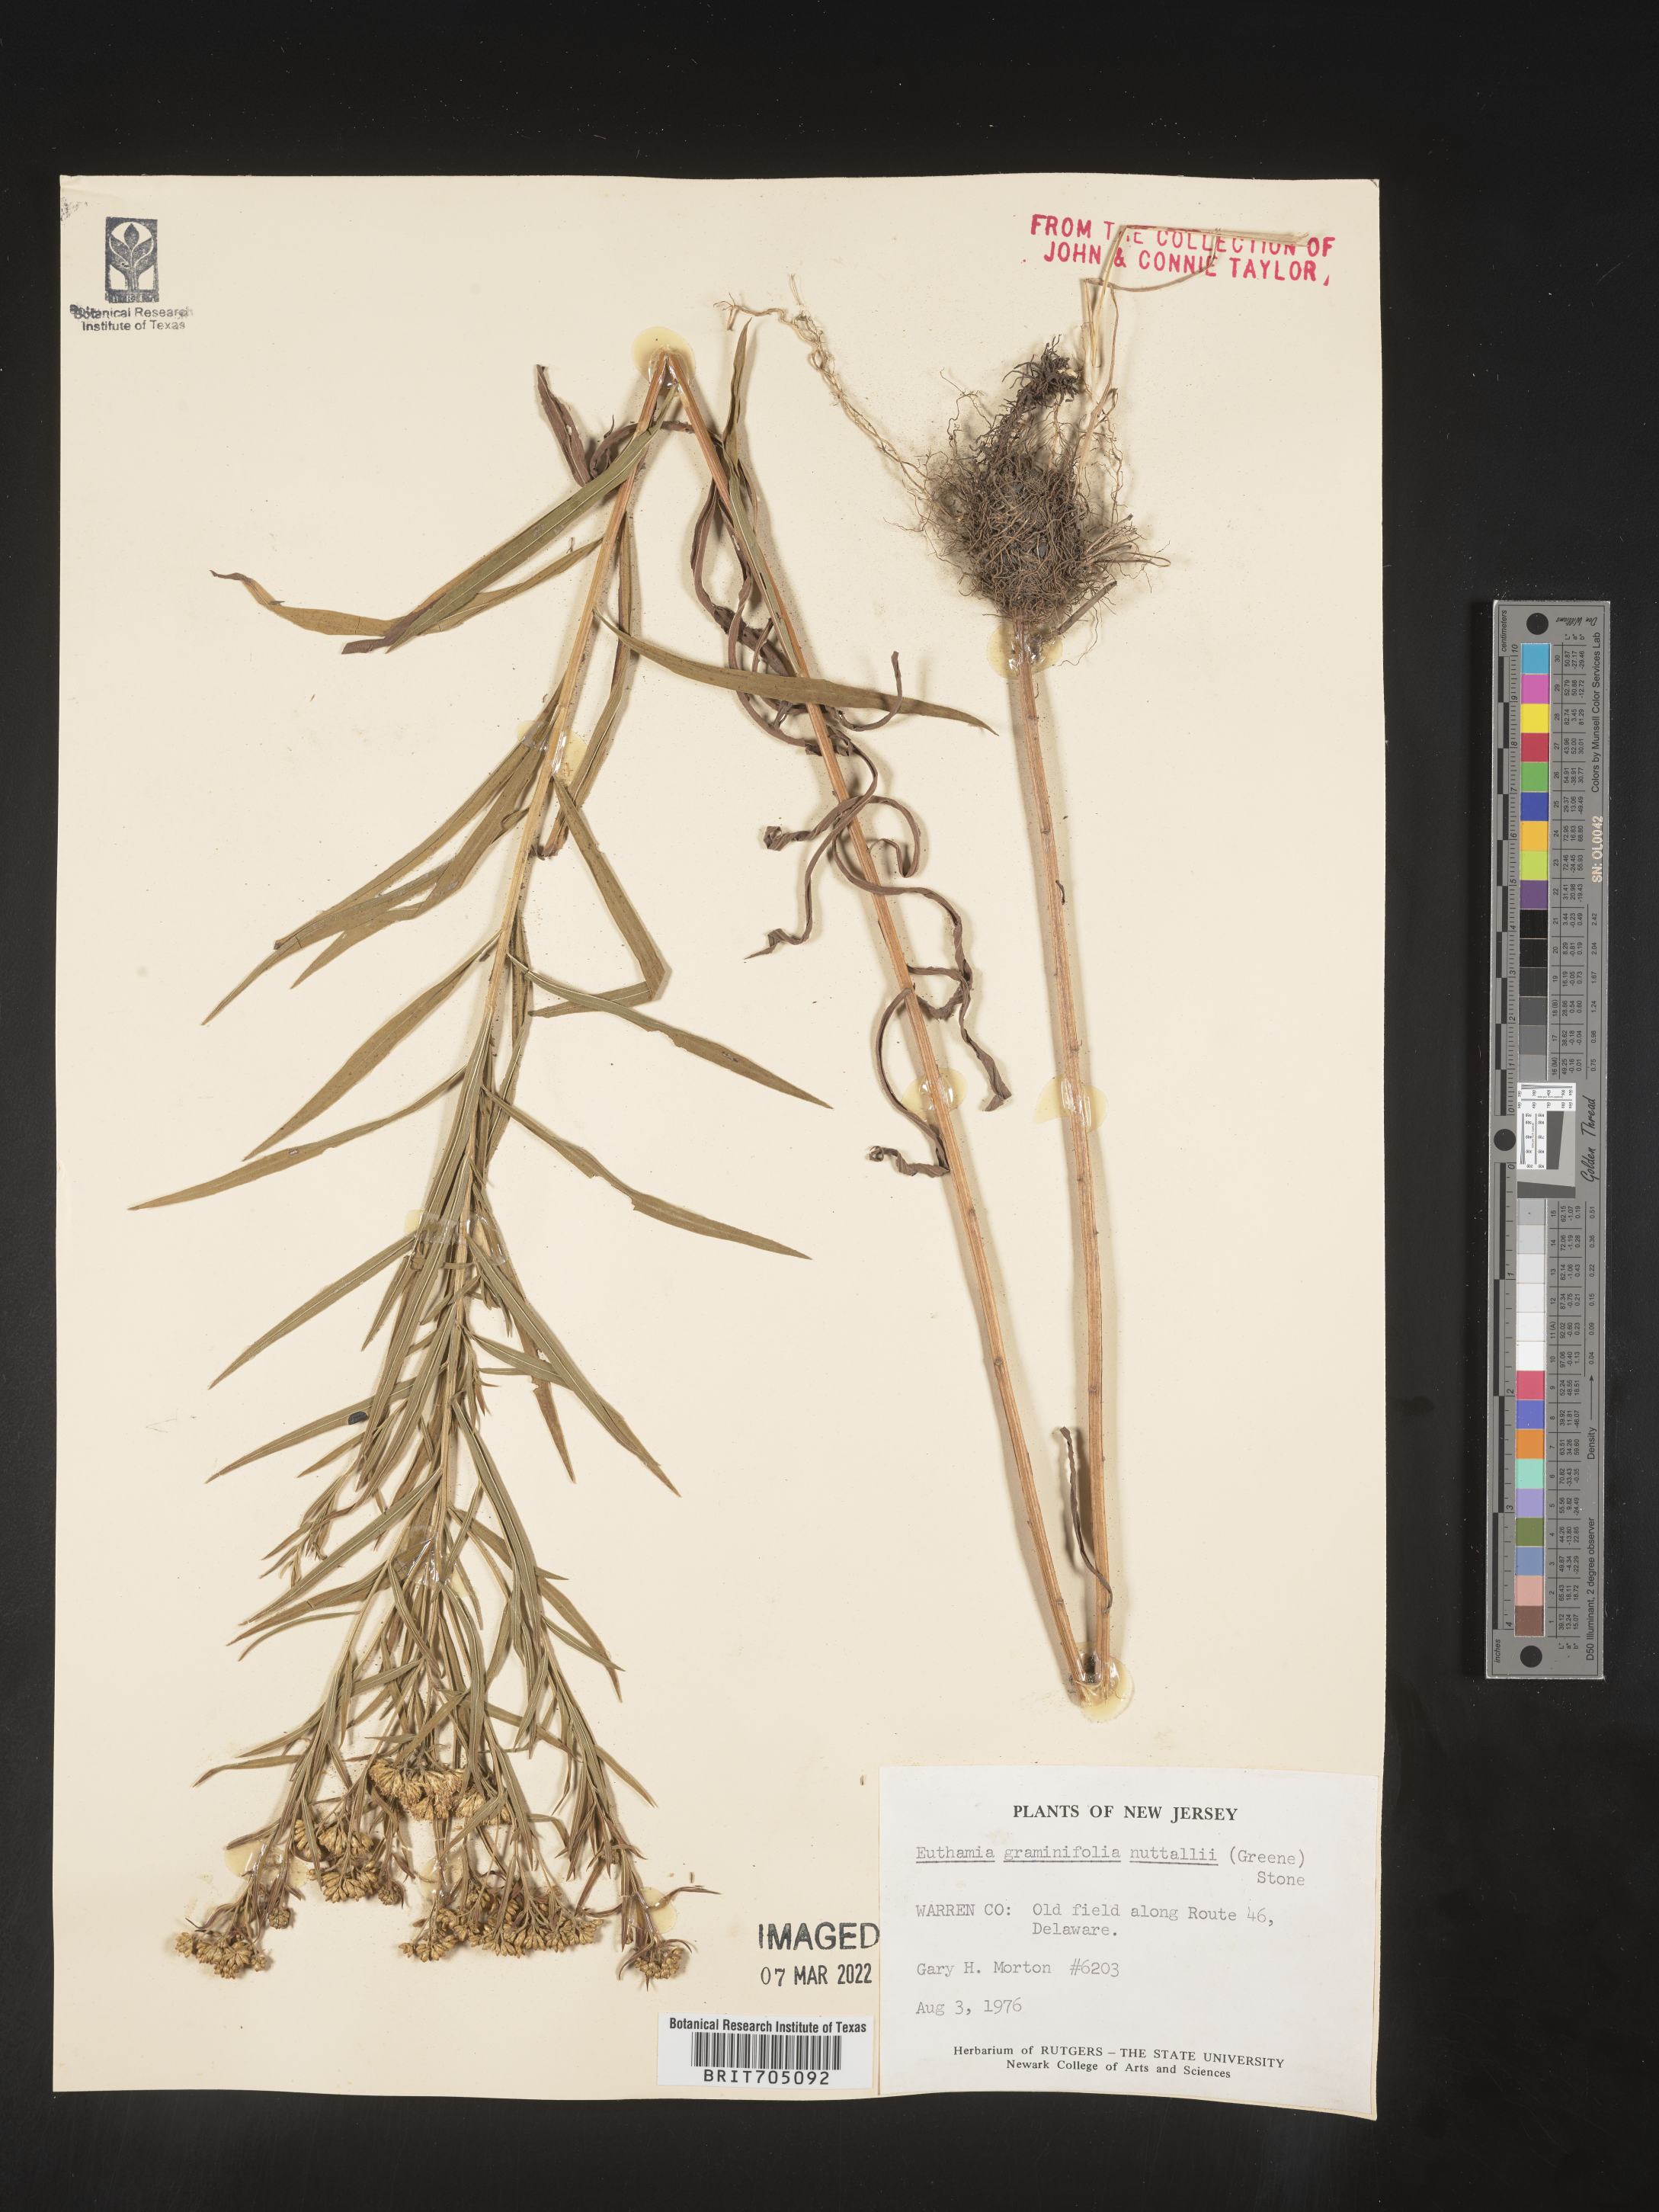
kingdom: Plantae
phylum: Tracheophyta
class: Magnoliopsida
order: Asterales
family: Asteraceae
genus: Euthamia
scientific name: Euthamia graminifolia
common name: Common goldentop
